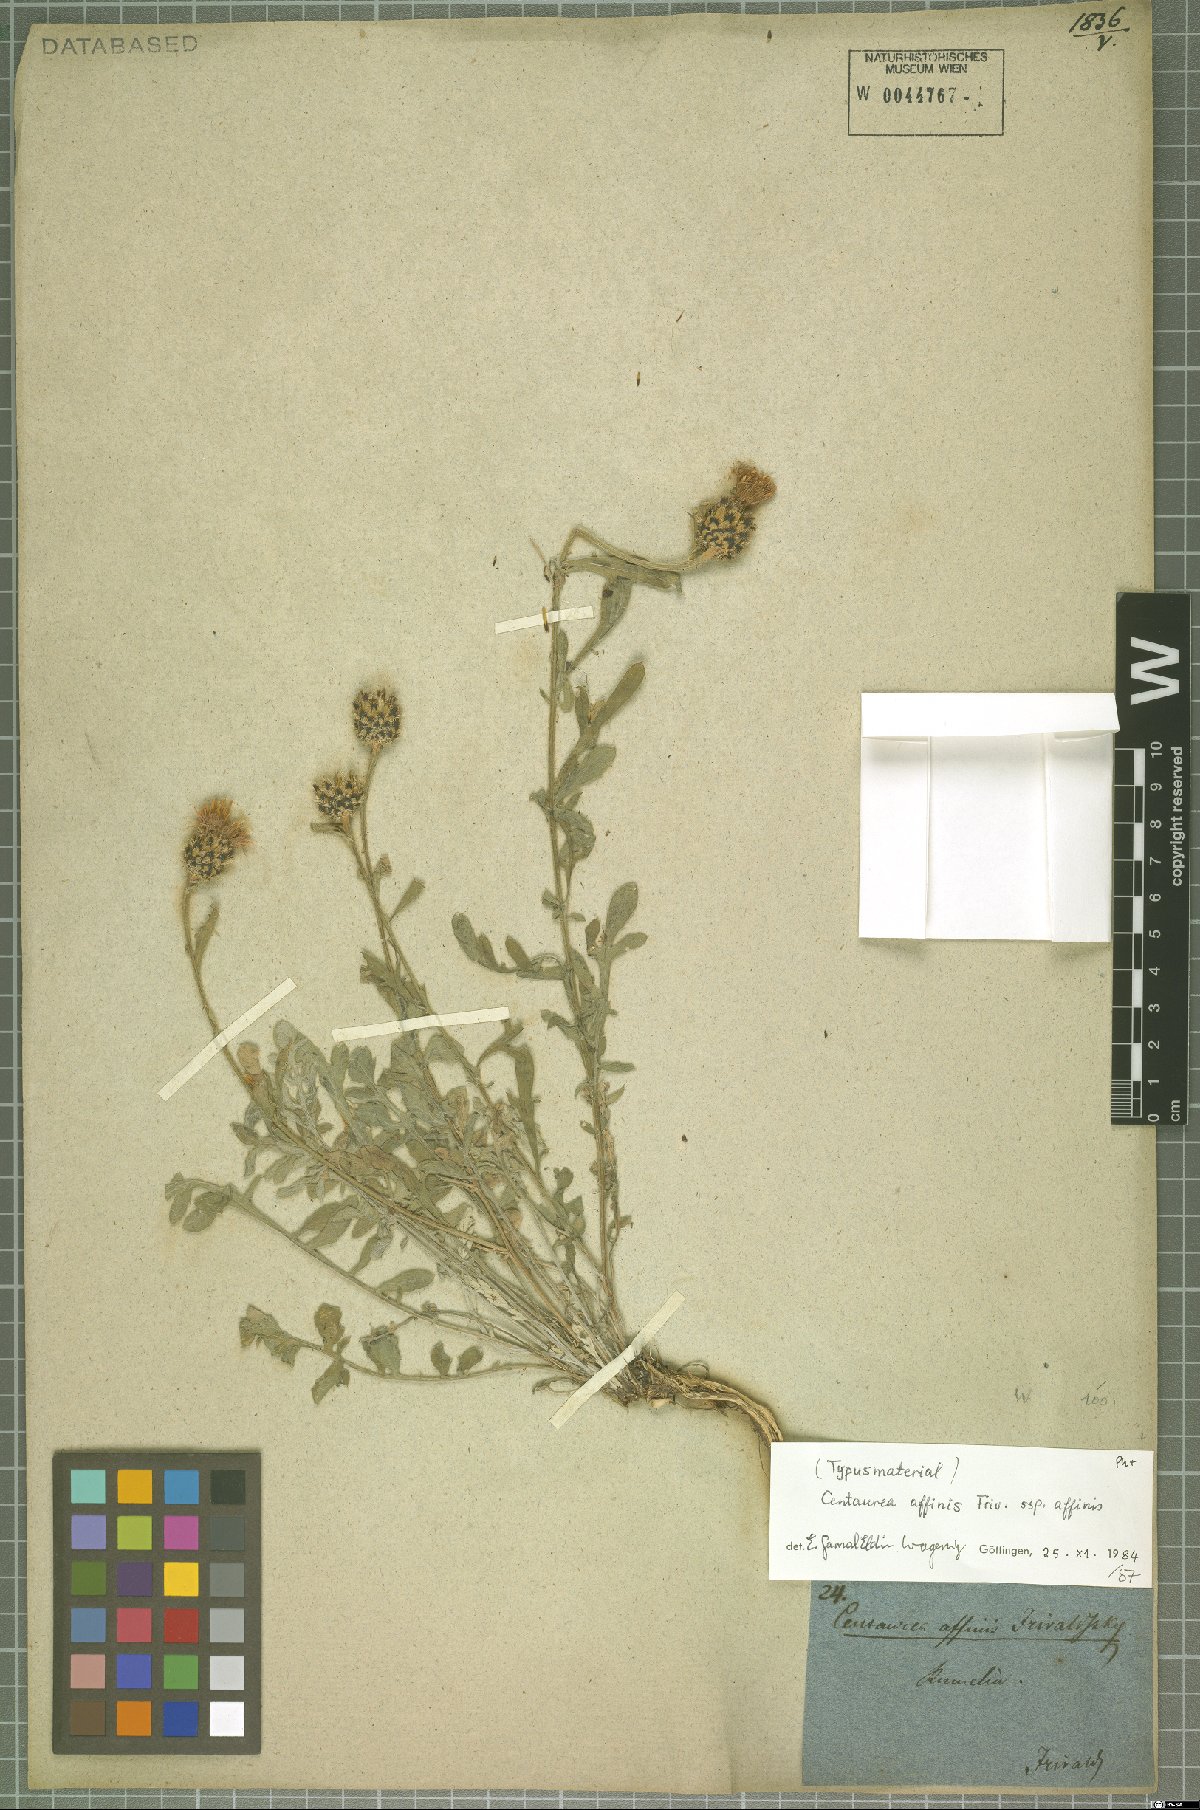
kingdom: Plantae
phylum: Tracheophyta
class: Magnoliopsida
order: Asterales
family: Asteraceae
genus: Centaurea
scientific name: Centaurea affinis
